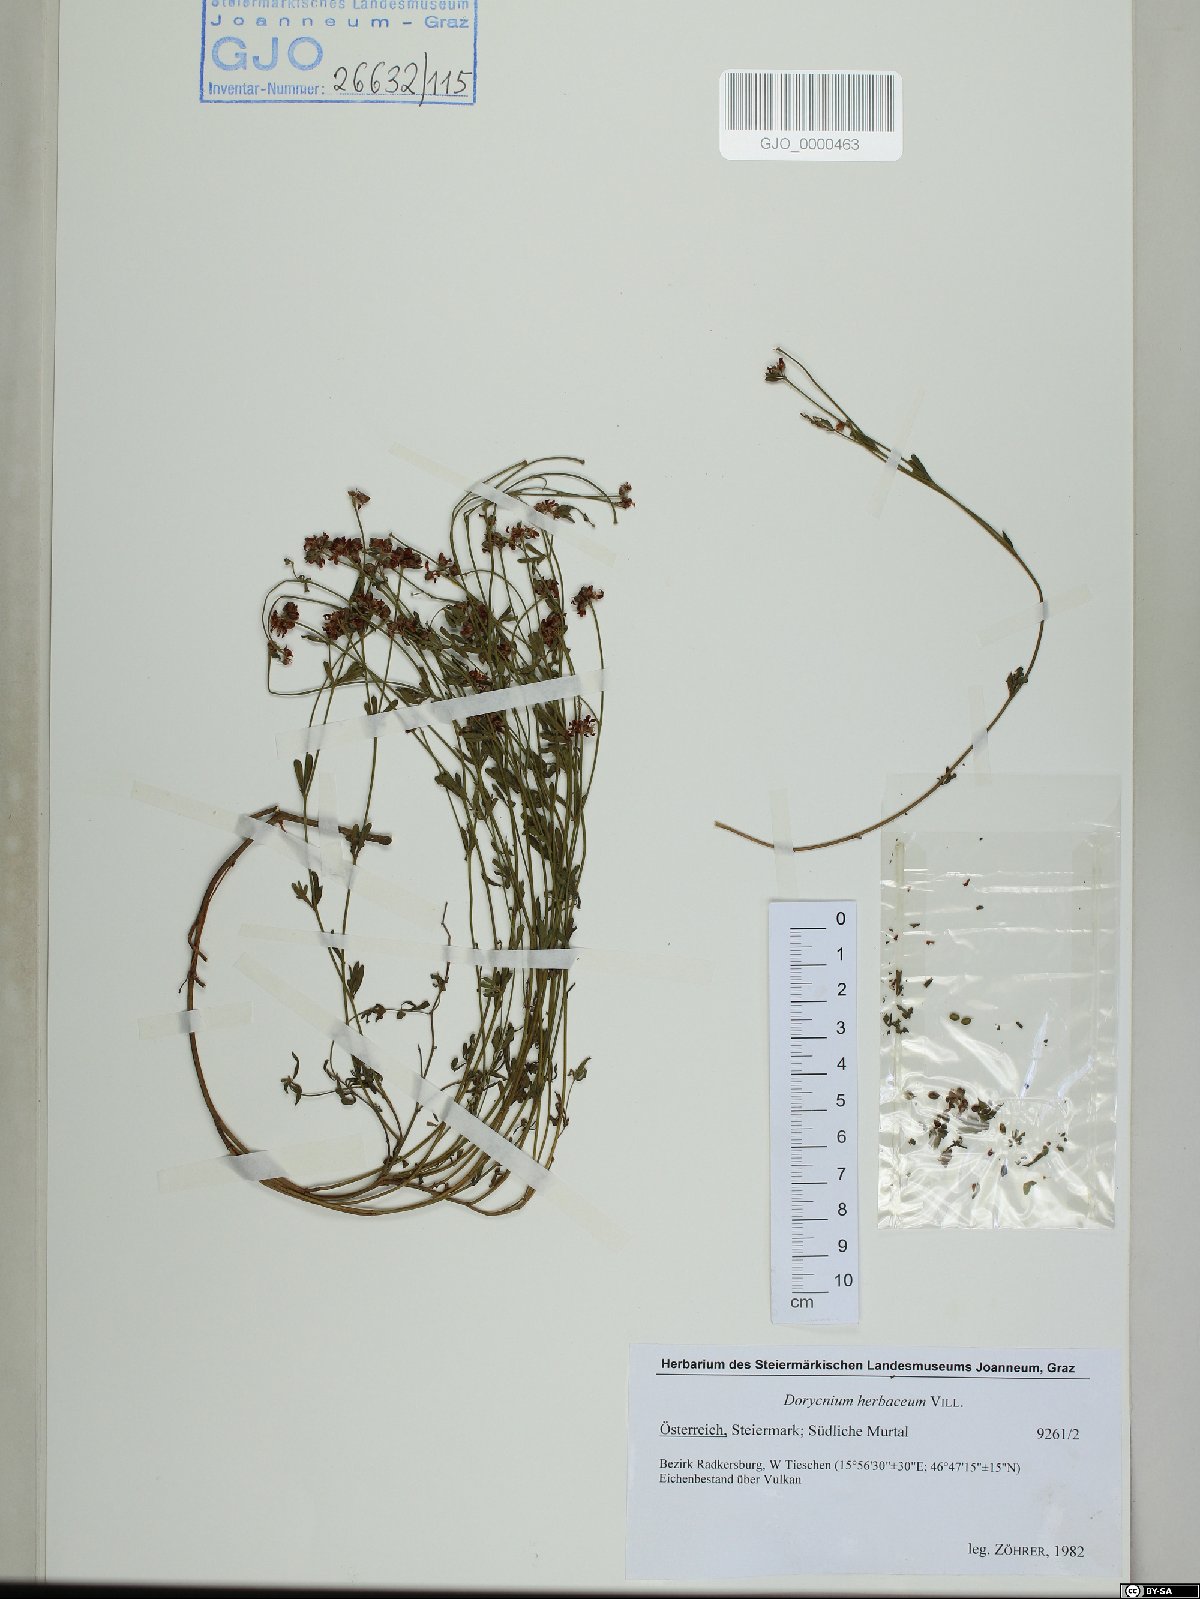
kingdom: Plantae
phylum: Tracheophyta
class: Magnoliopsida
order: Fabales
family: Fabaceae
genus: Lotus
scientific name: Lotus herbaceus
